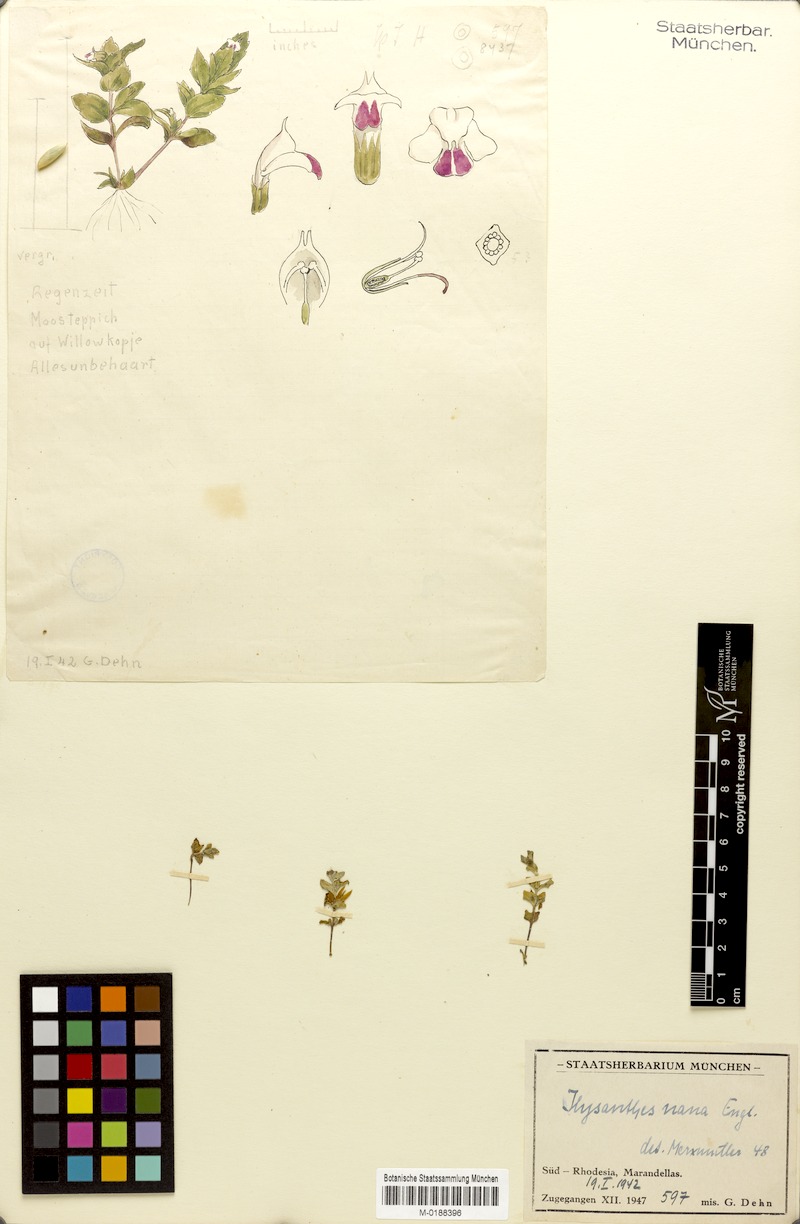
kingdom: Plantae
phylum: Tracheophyta
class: Magnoliopsida
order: Lamiales
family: Linderniaceae
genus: Linderniella
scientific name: Linderniella nana
